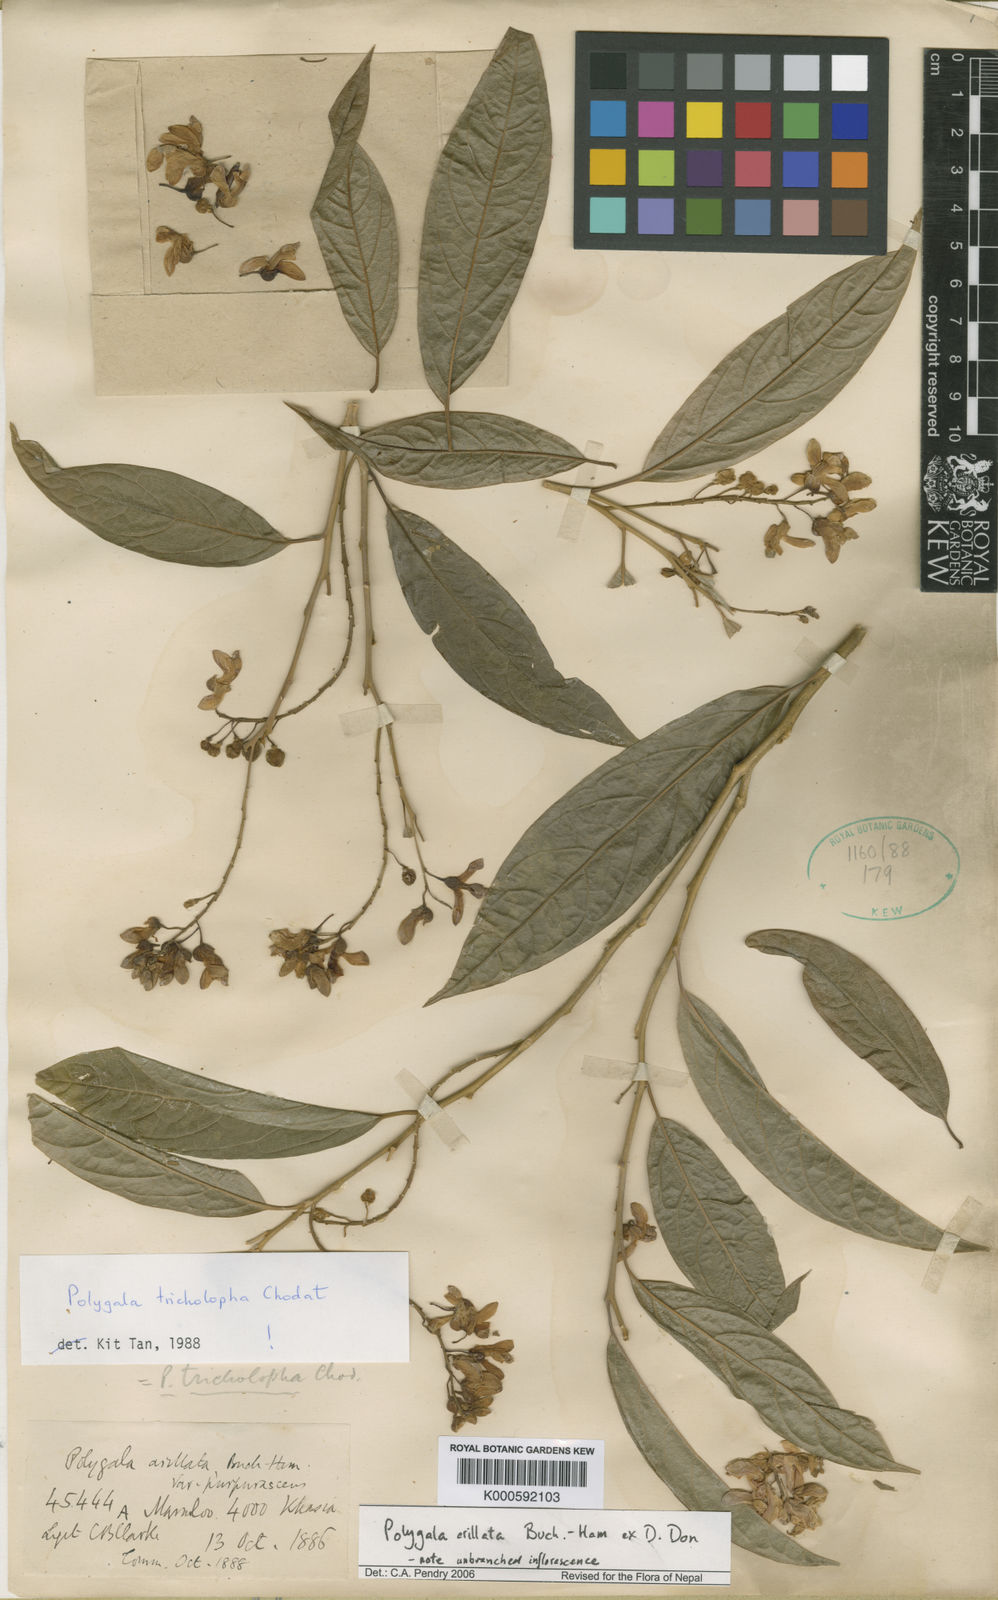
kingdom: Plantae
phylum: Tracheophyta
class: Magnoliopsida
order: Fabales
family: Polygalaceae
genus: Polygala
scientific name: Polygala tricholopha
